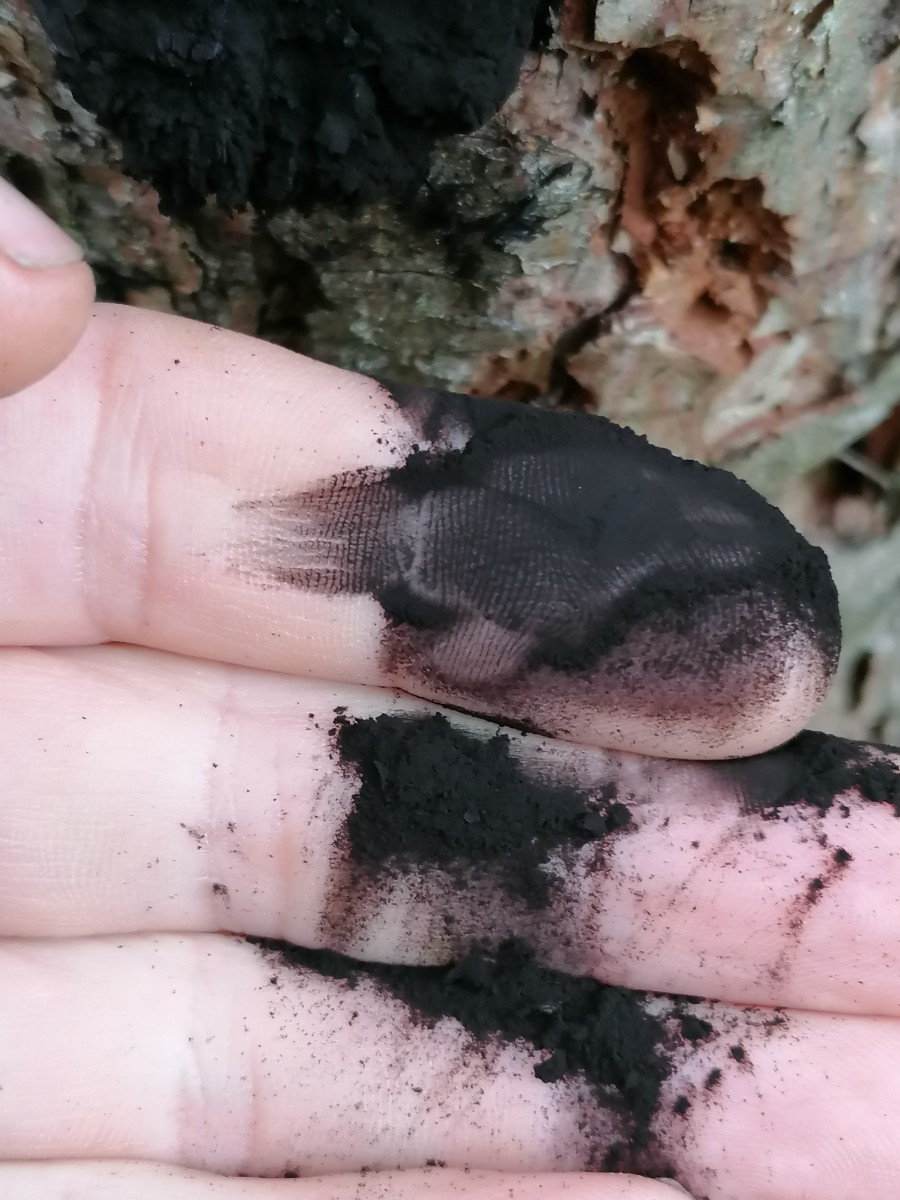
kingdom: Protozoa
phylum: Mycetozoa
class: Myxomycetes
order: Stemonitidales
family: Stemonitidaceae
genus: Amaurochaete
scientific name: Amaurochaete atra
